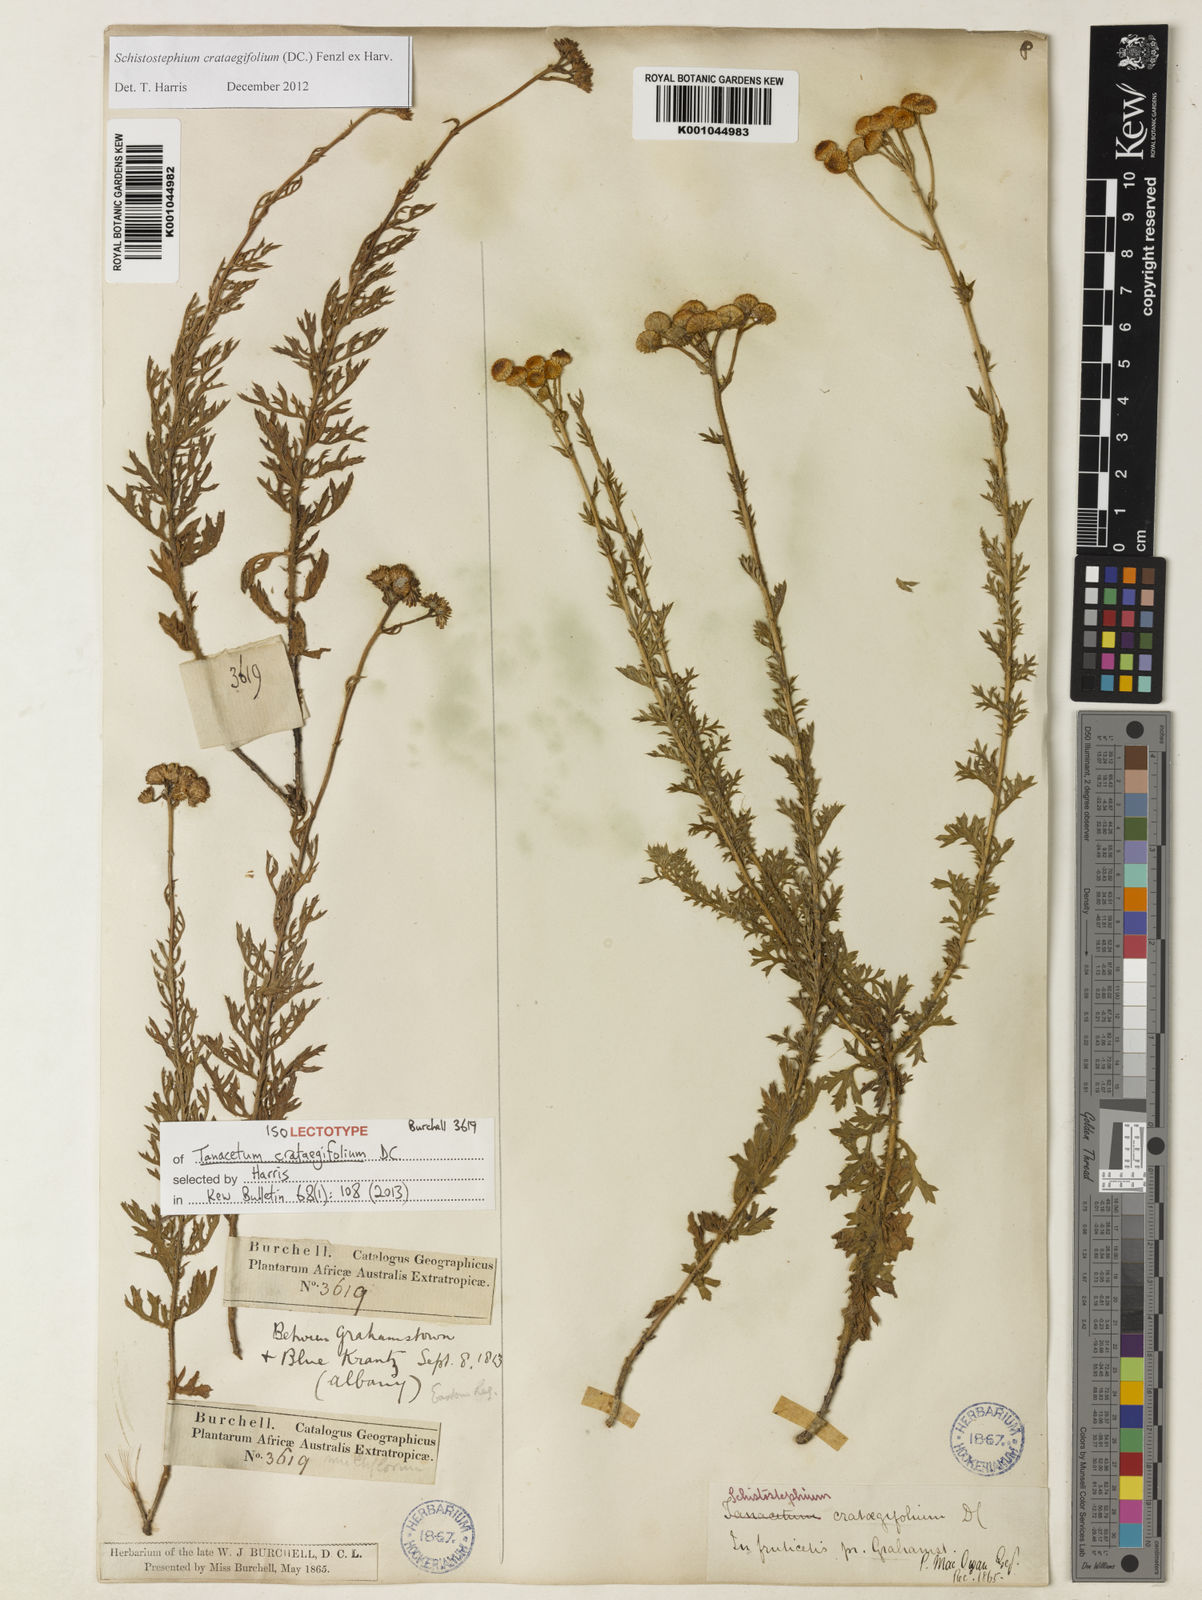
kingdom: Plantae
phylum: Tracheophyta
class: Magnoliopsida
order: Asterales
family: Asteraceae
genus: Schistostephium
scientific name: Schistostephium crataegifolium
